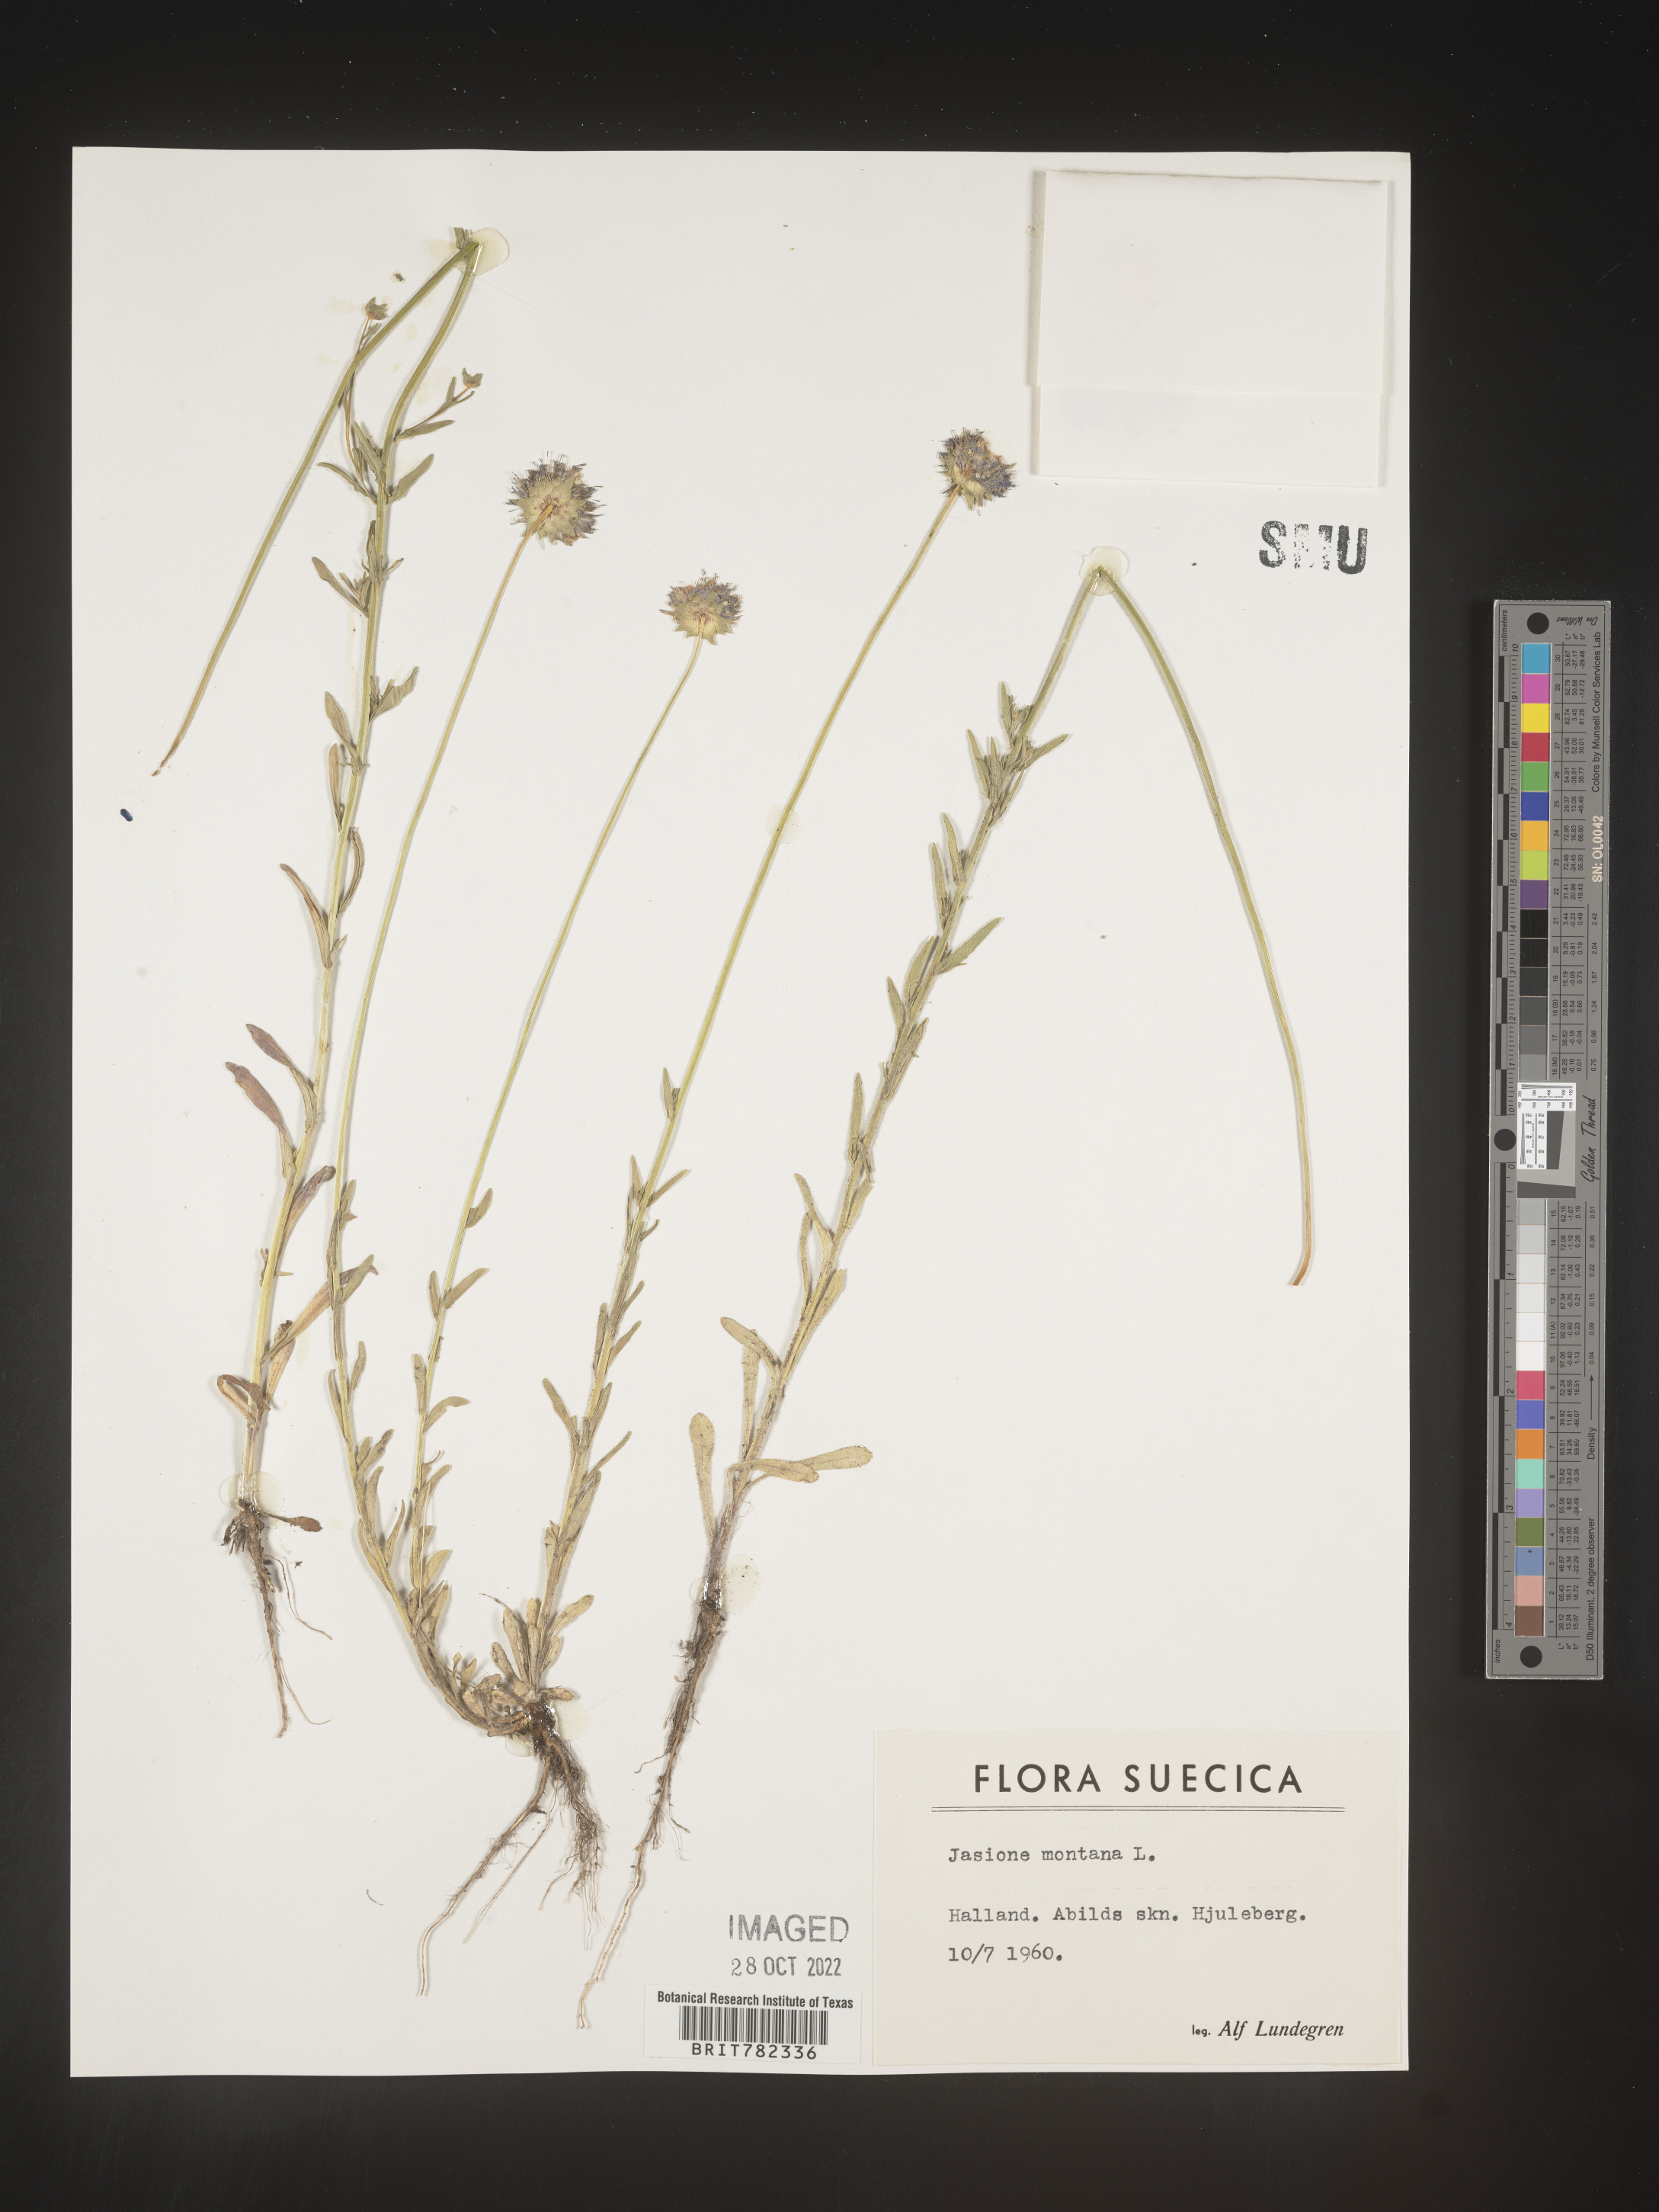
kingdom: Plantae
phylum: Tracheophyta
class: Magnoliopsida
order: Asterales
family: Campanulaceae
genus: Jasione
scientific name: Jasione
